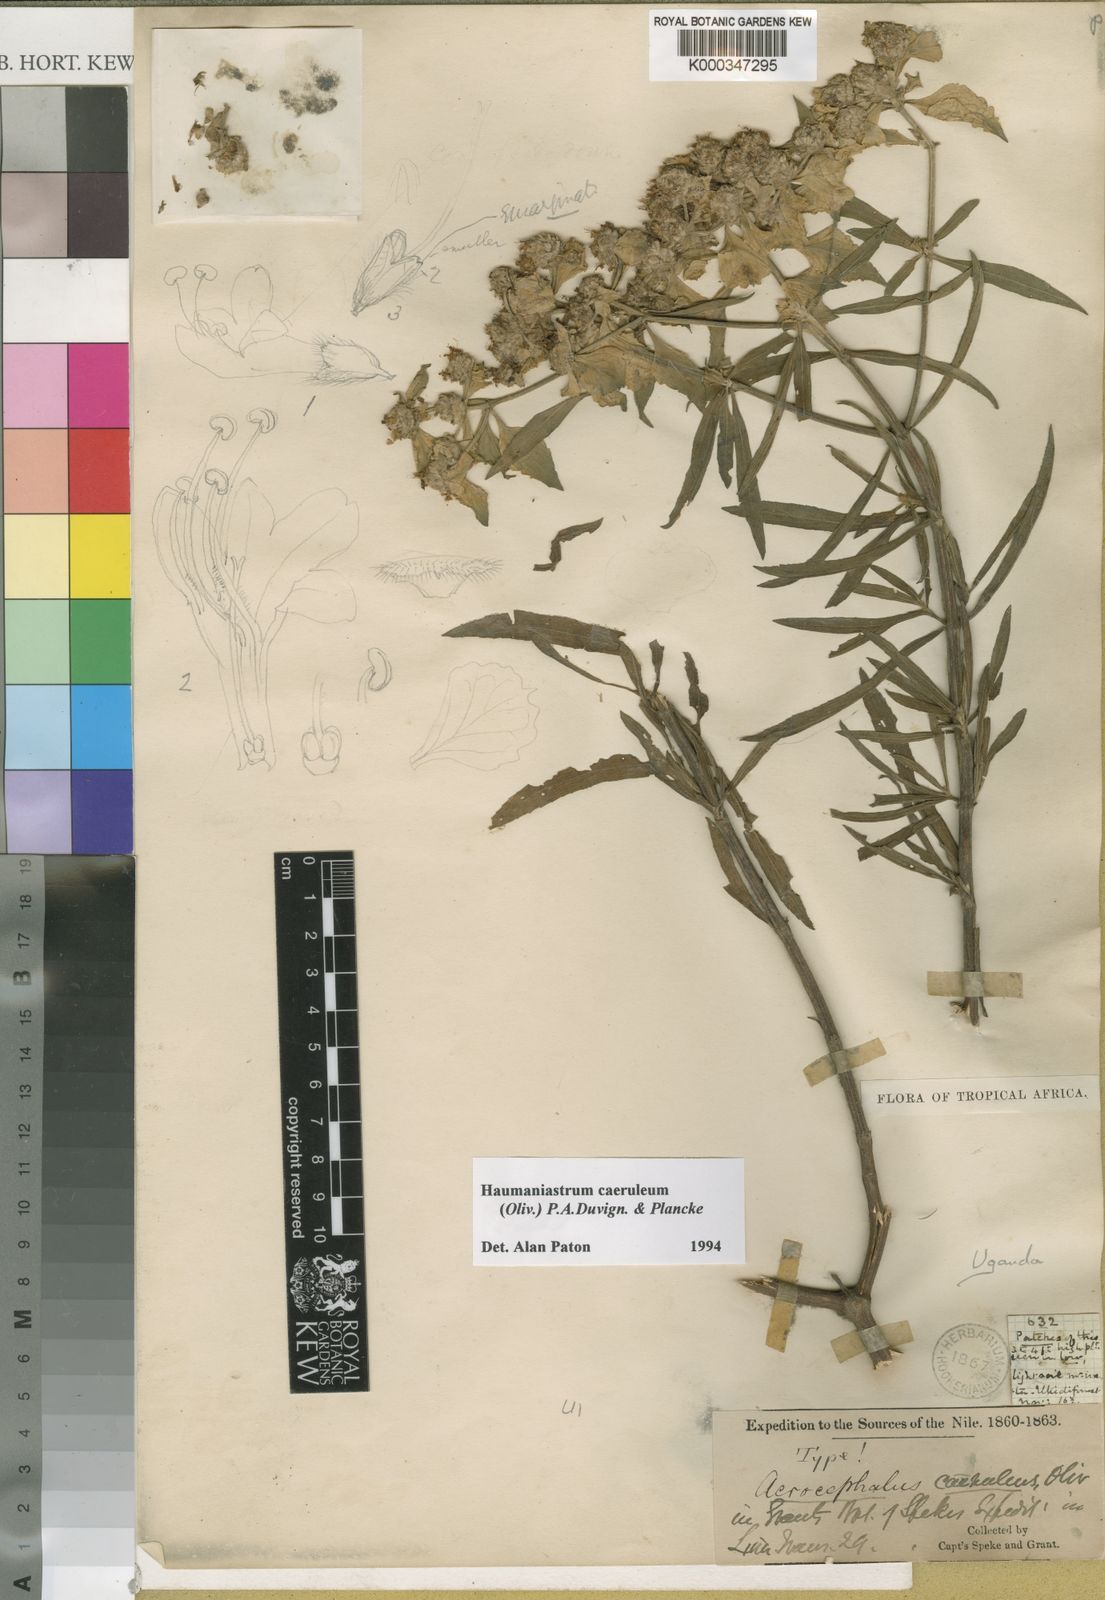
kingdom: Plantae
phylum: Tracheophyta
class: Magnoliopsida
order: Lamiales
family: Lamiaceae
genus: Haumaniastrum
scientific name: Haumaniastrum caeruleum
